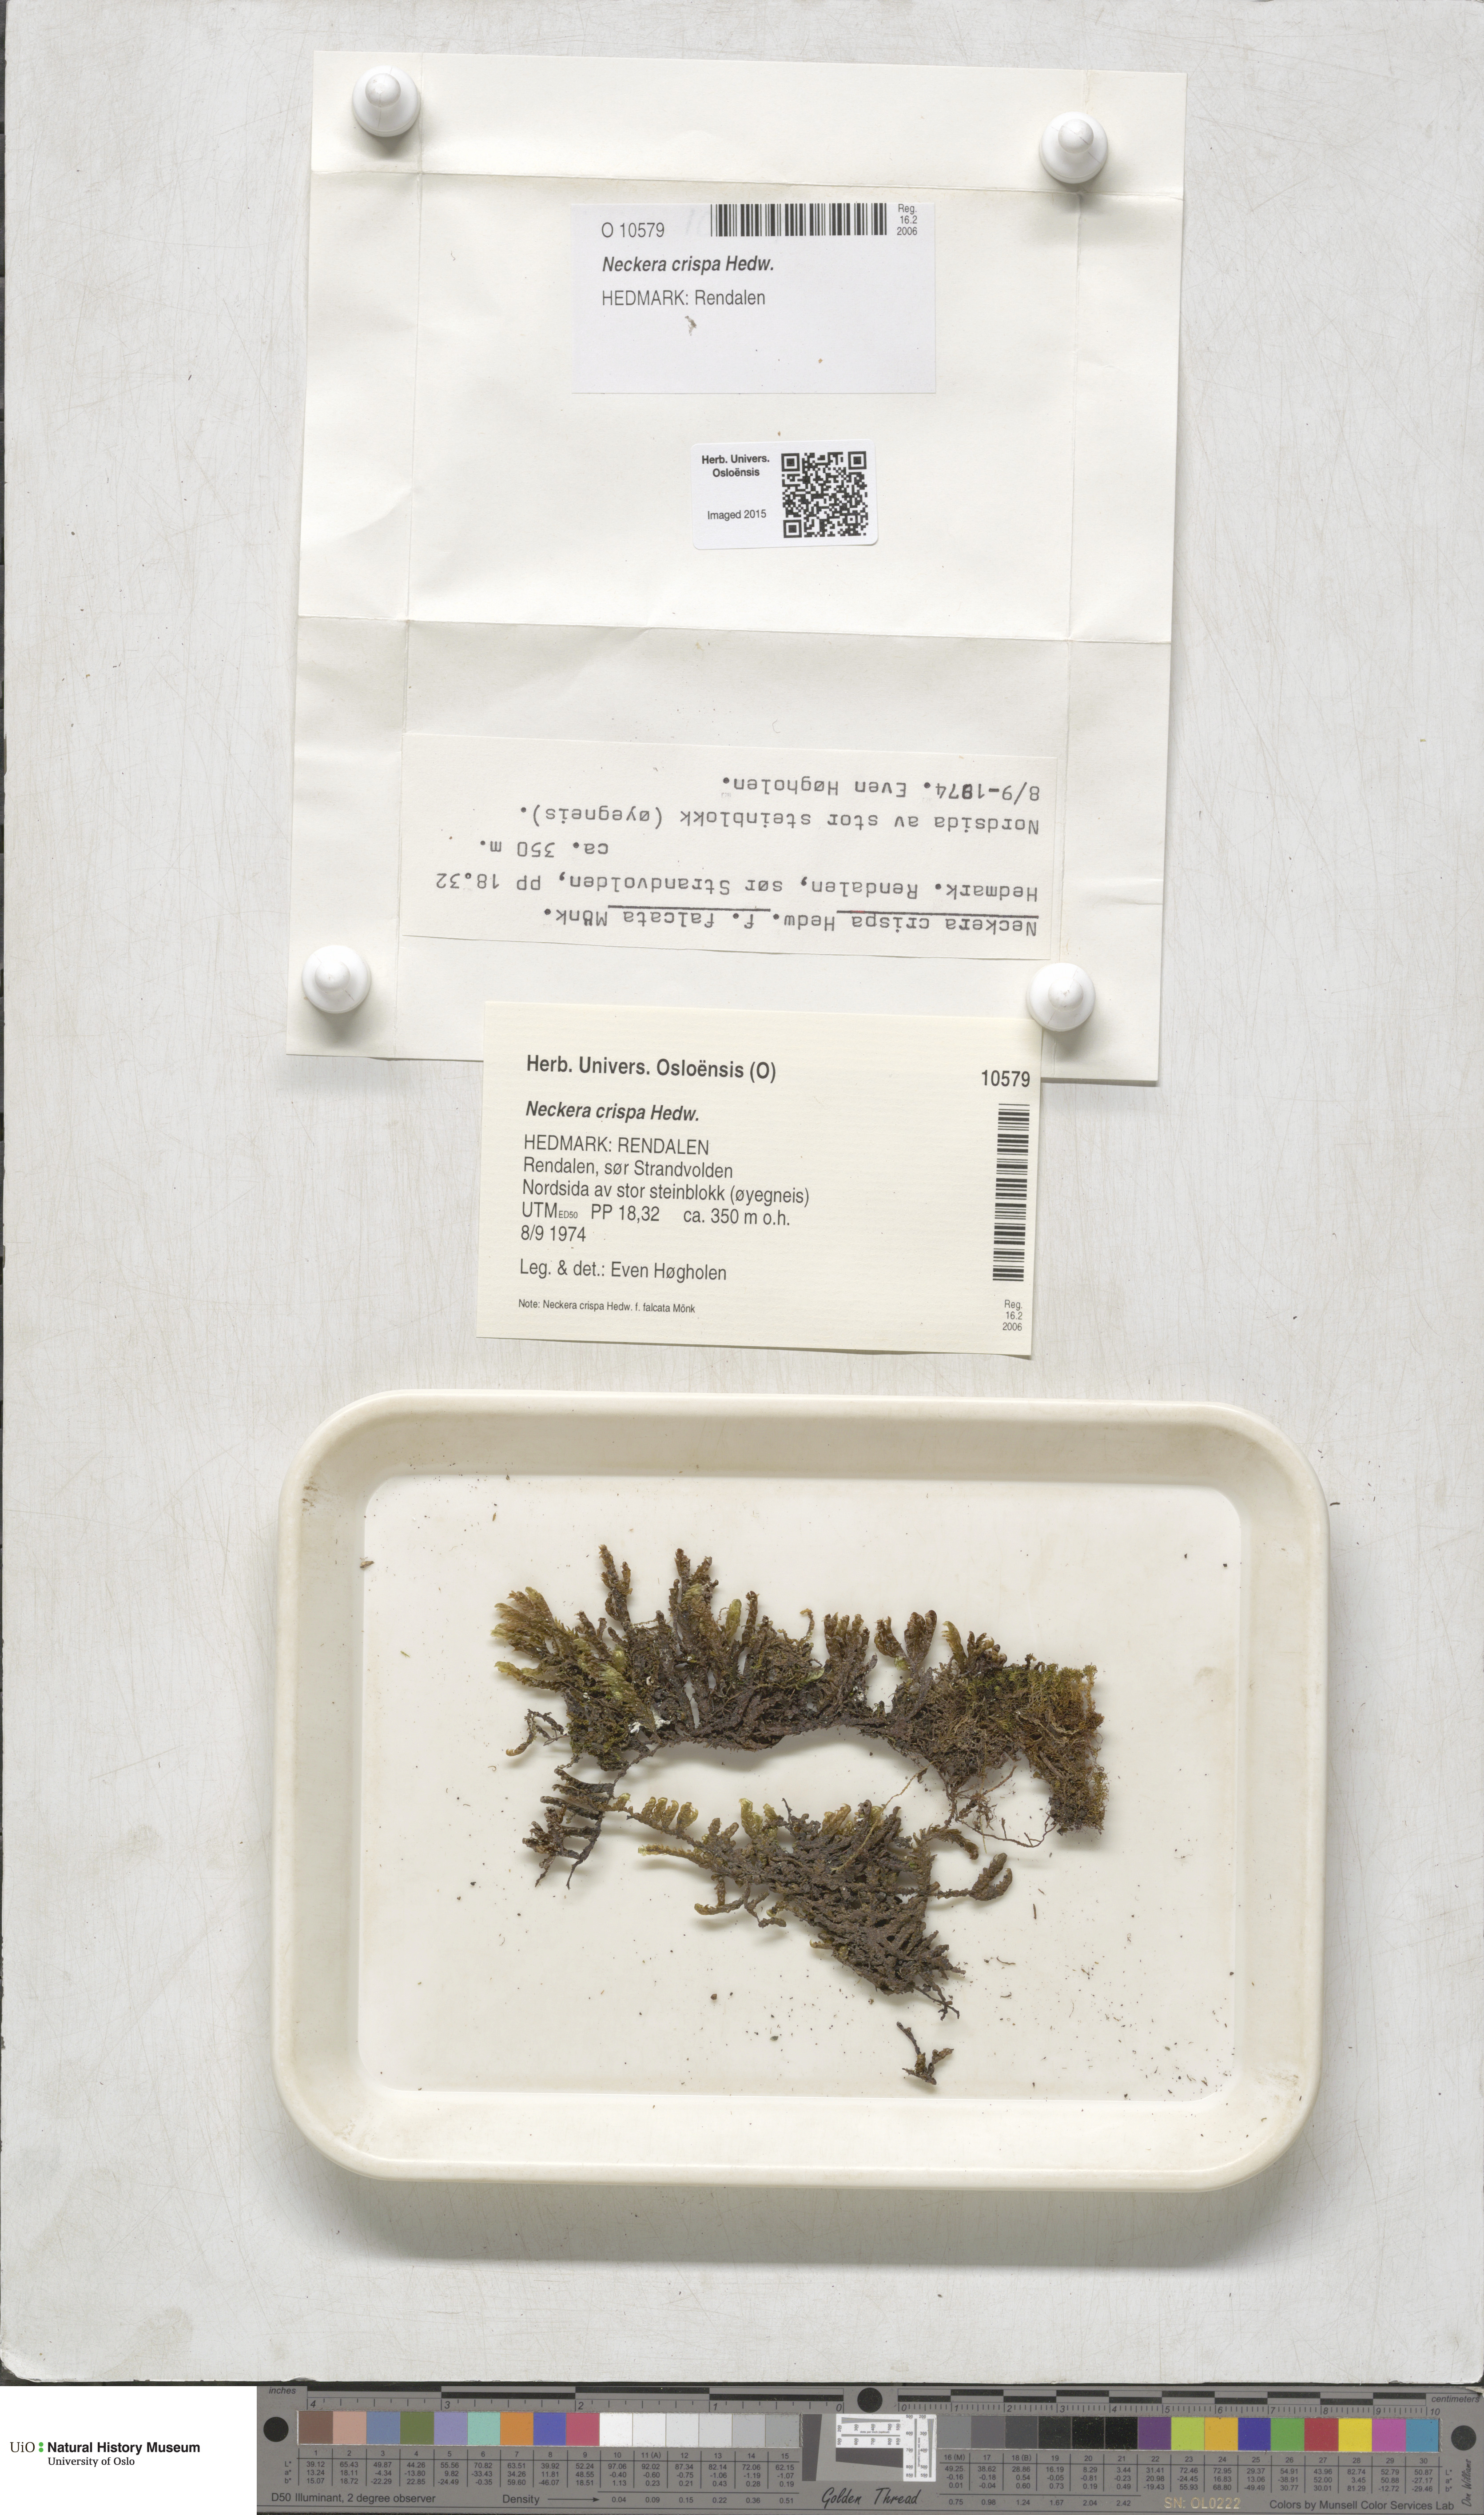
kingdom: Plantae
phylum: Bryophyta
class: Bryopsida
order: Hypnales
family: Neckeraceae
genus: Exsertotheca
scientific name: Exsertotheca crispa
